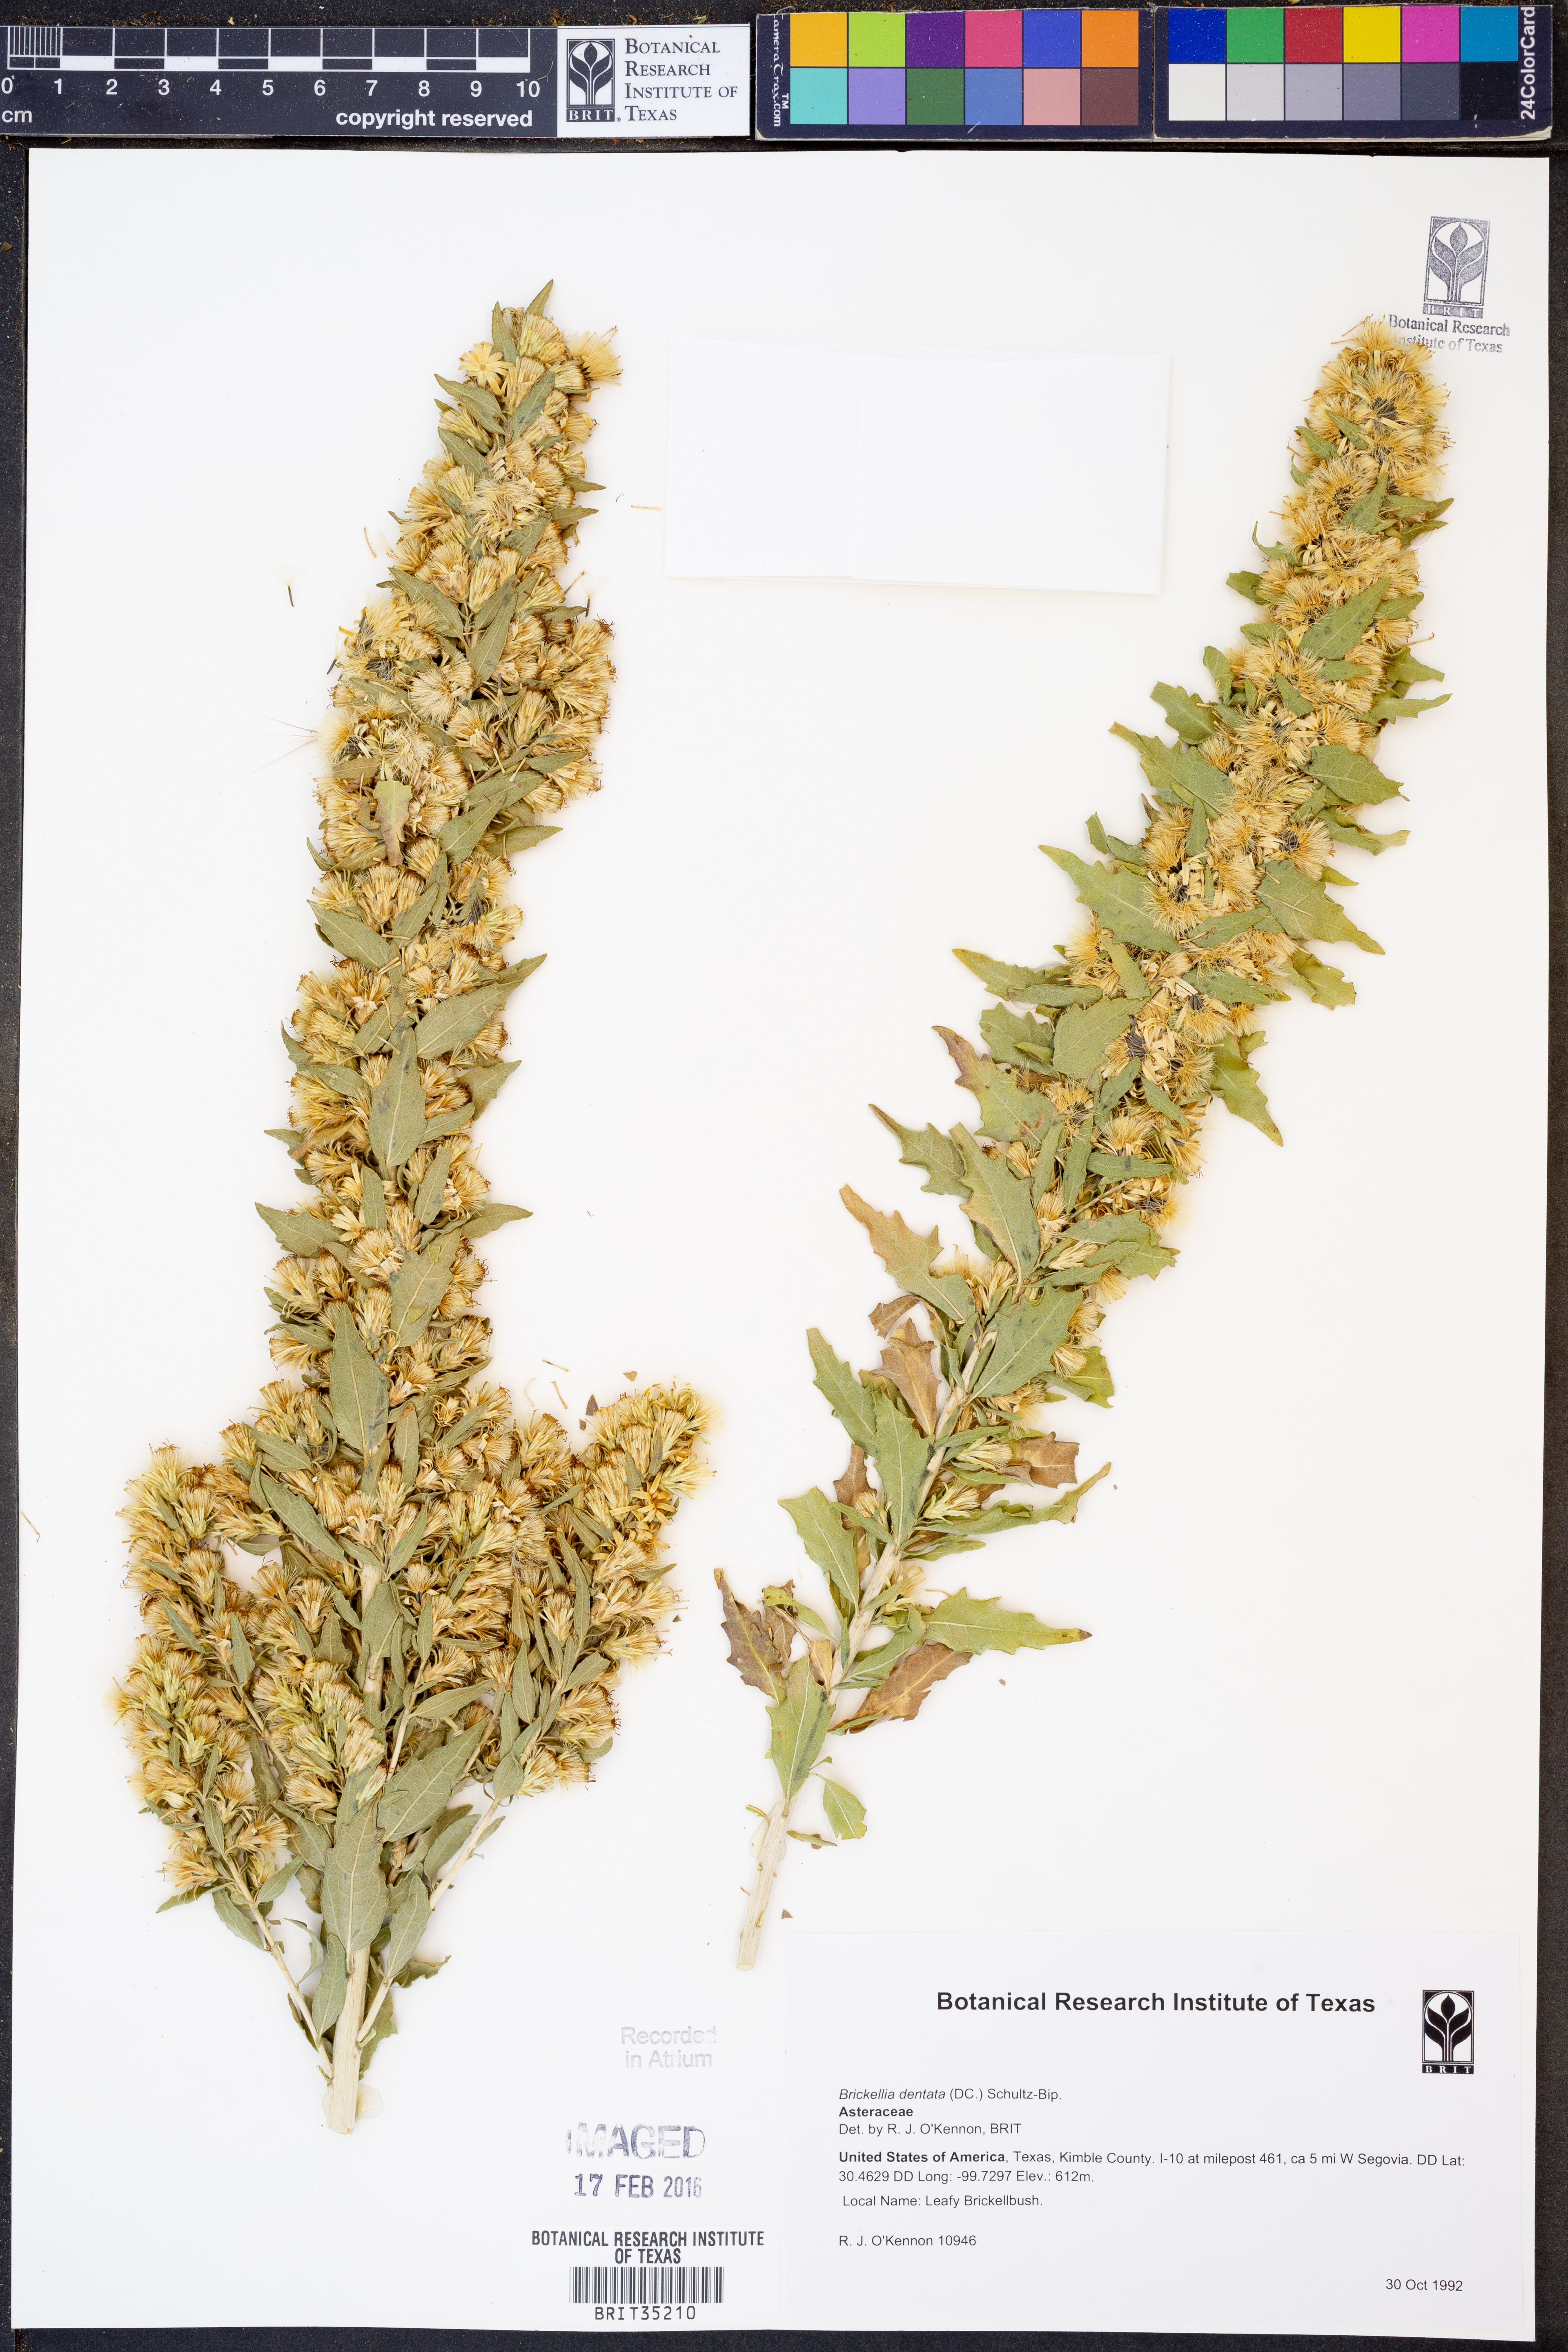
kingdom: Plantae
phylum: Tracheophyta
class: Magnoliopsida
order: Asterales
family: Asteraceae
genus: Brickellia
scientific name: Brickellia dentata
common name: Leafy brickellbush
